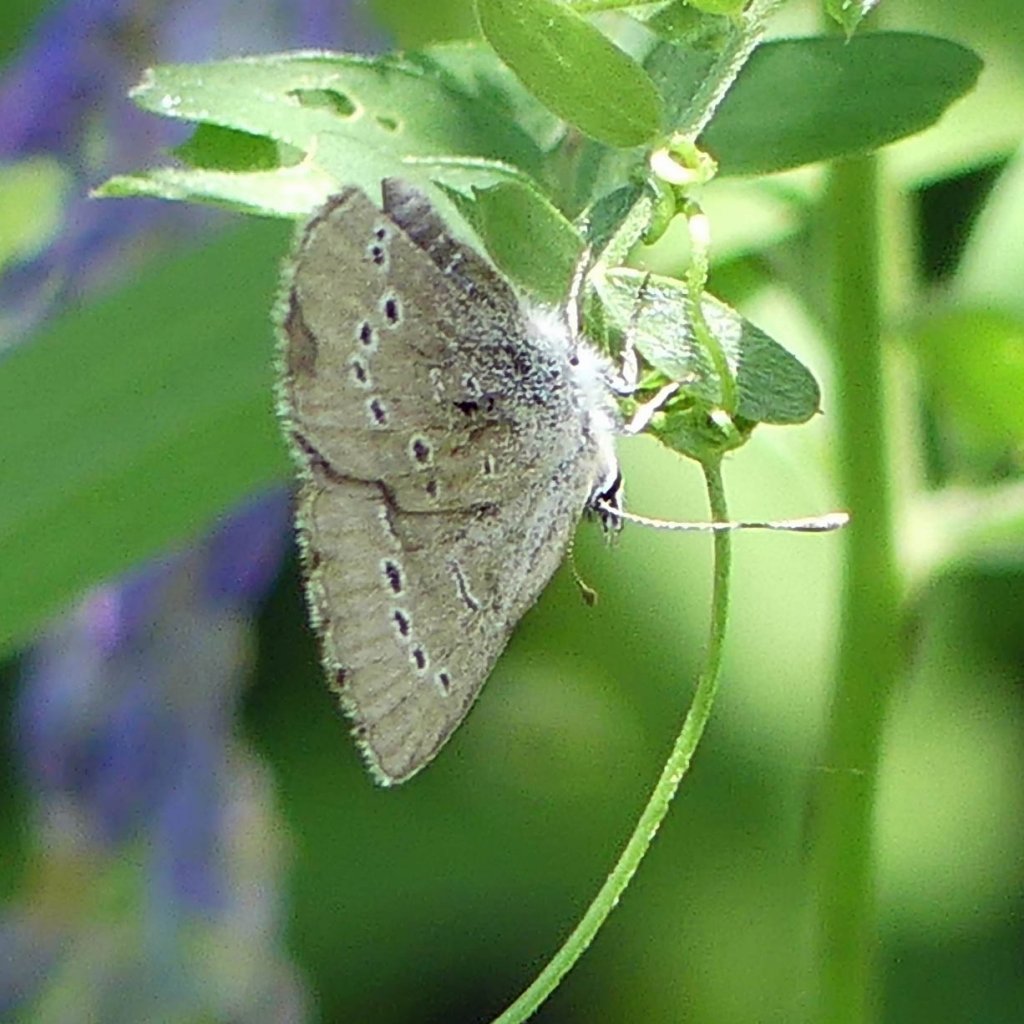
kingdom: Animalia
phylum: Arthropoda
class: Insecta
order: Lepidoptera
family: Lycaenidae
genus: Glaucopsyche
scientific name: Glaucopsyche lygdamus
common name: Silvery Blue
